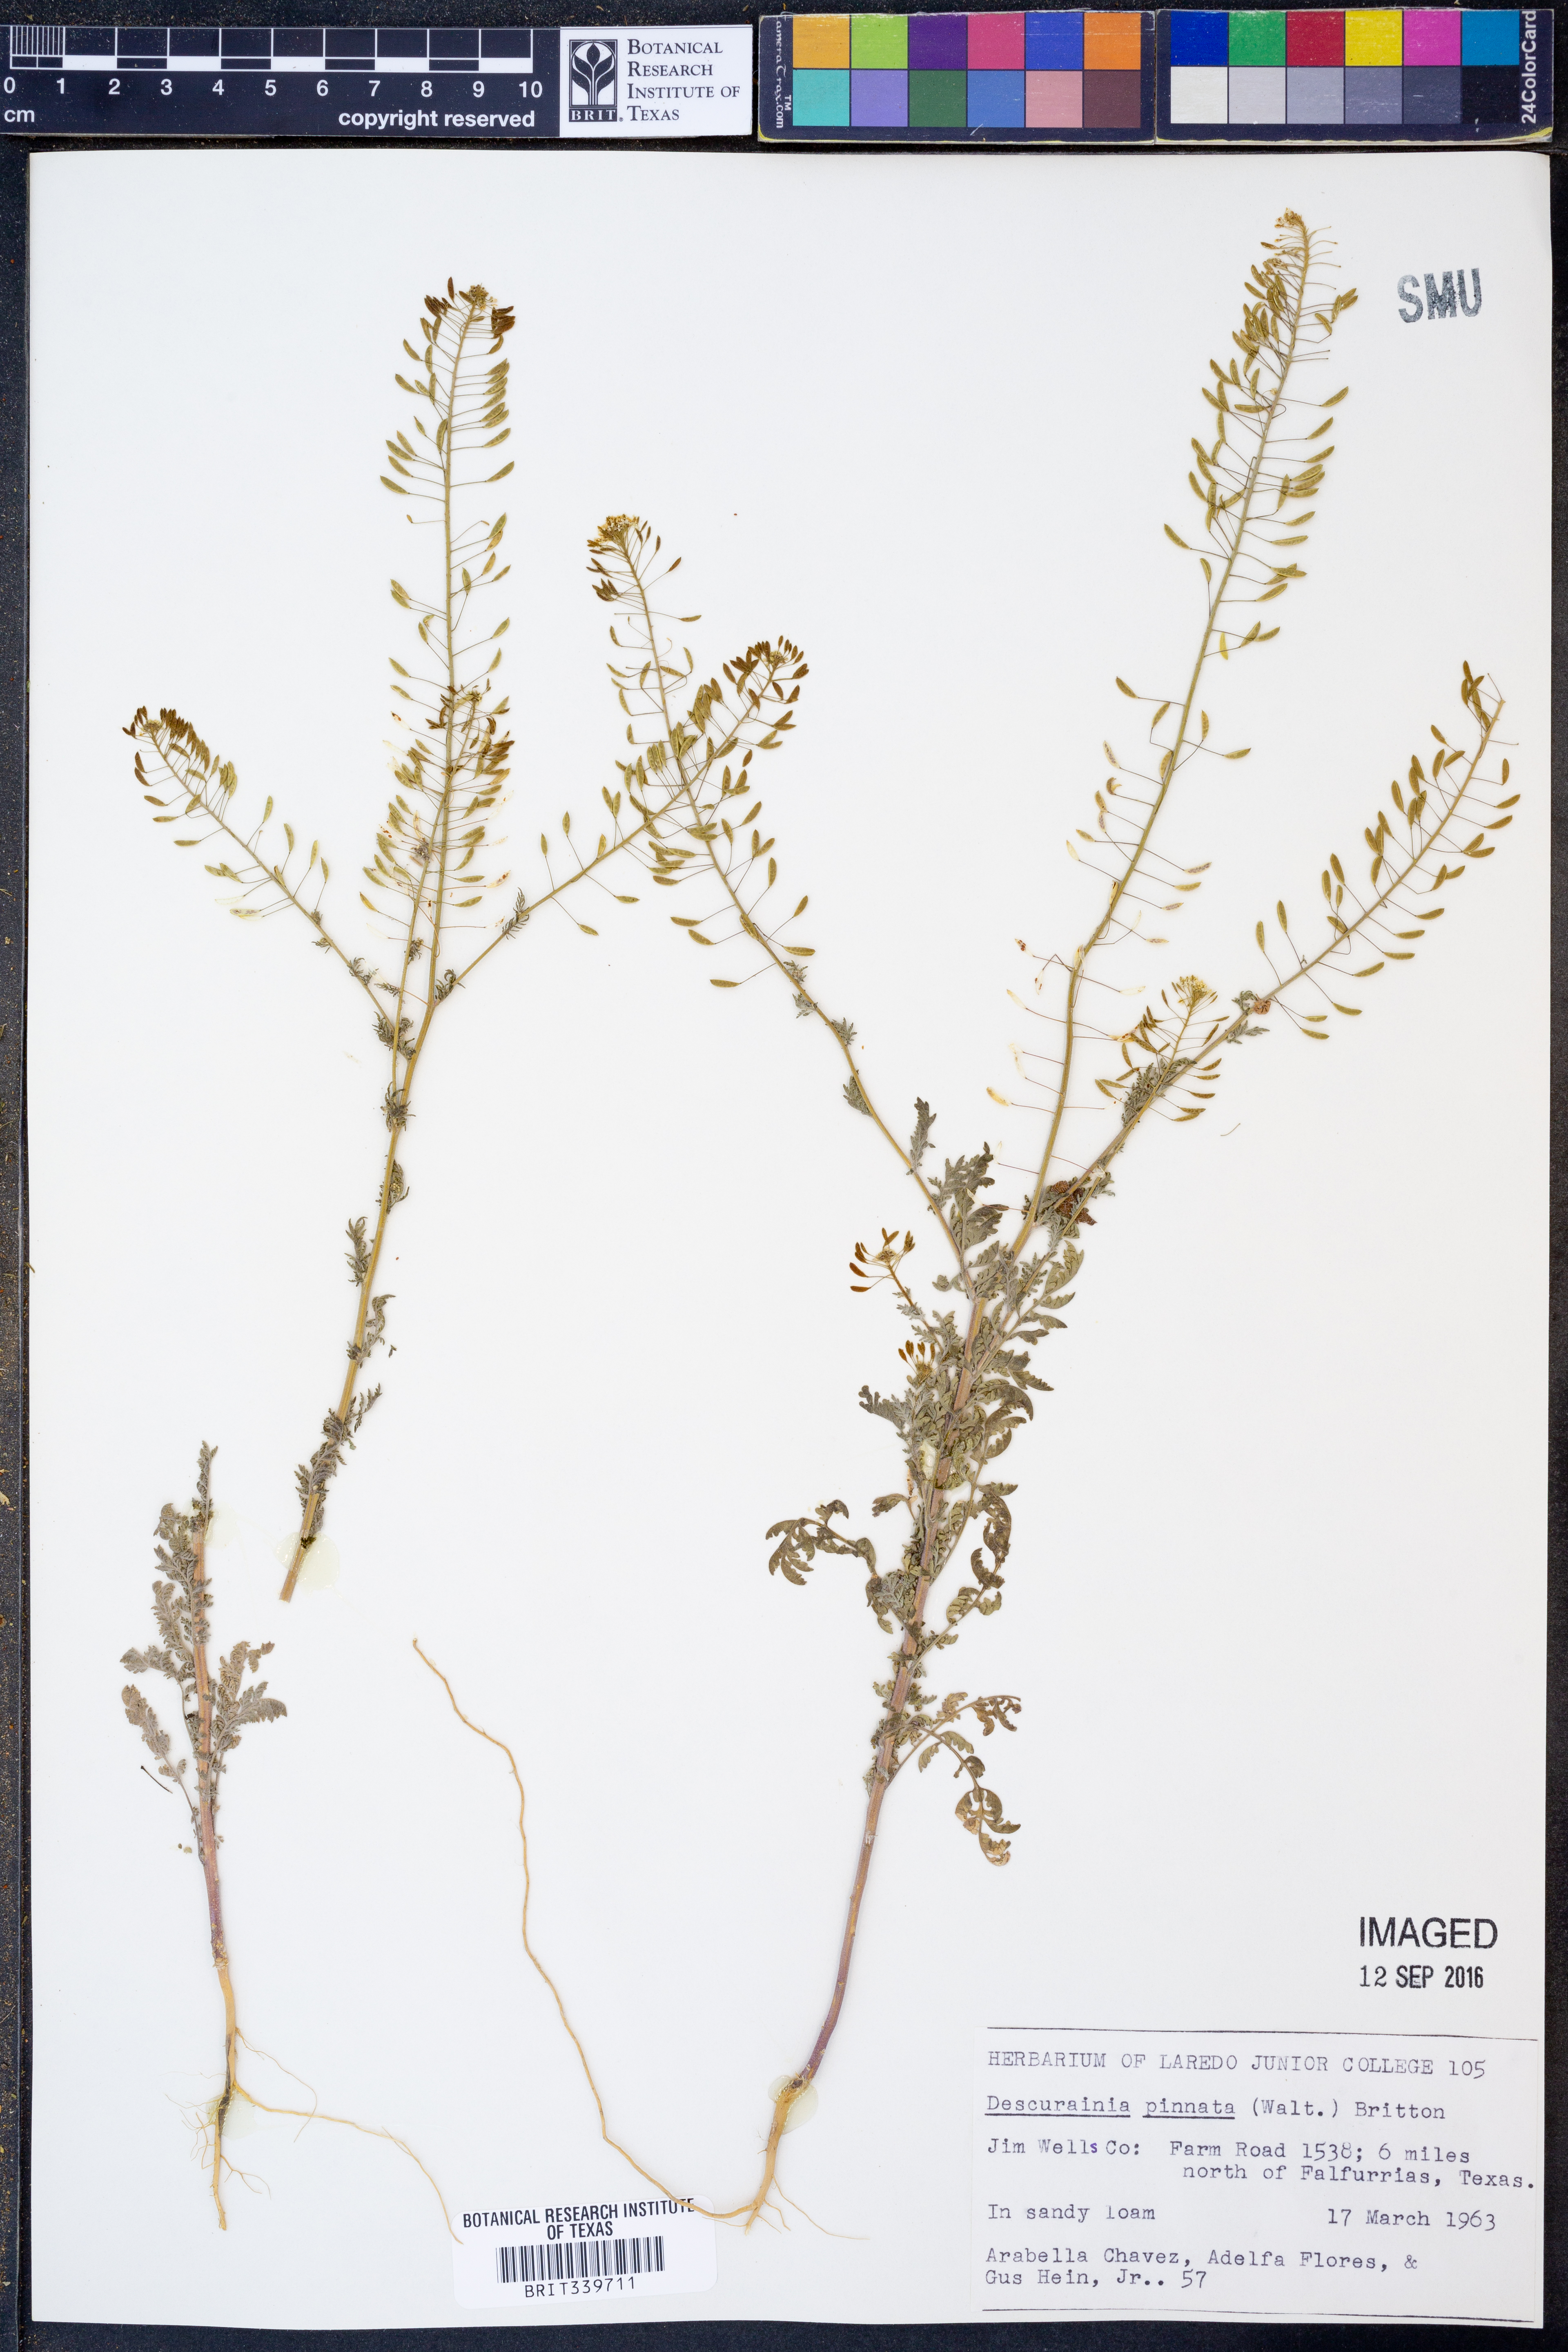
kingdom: Plantae
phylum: Tracheophyta
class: Magnoliopsida
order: Brassicales
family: Brassicaceae
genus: Descurainia
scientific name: Descurainia pinnata
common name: Western tansy mustard
